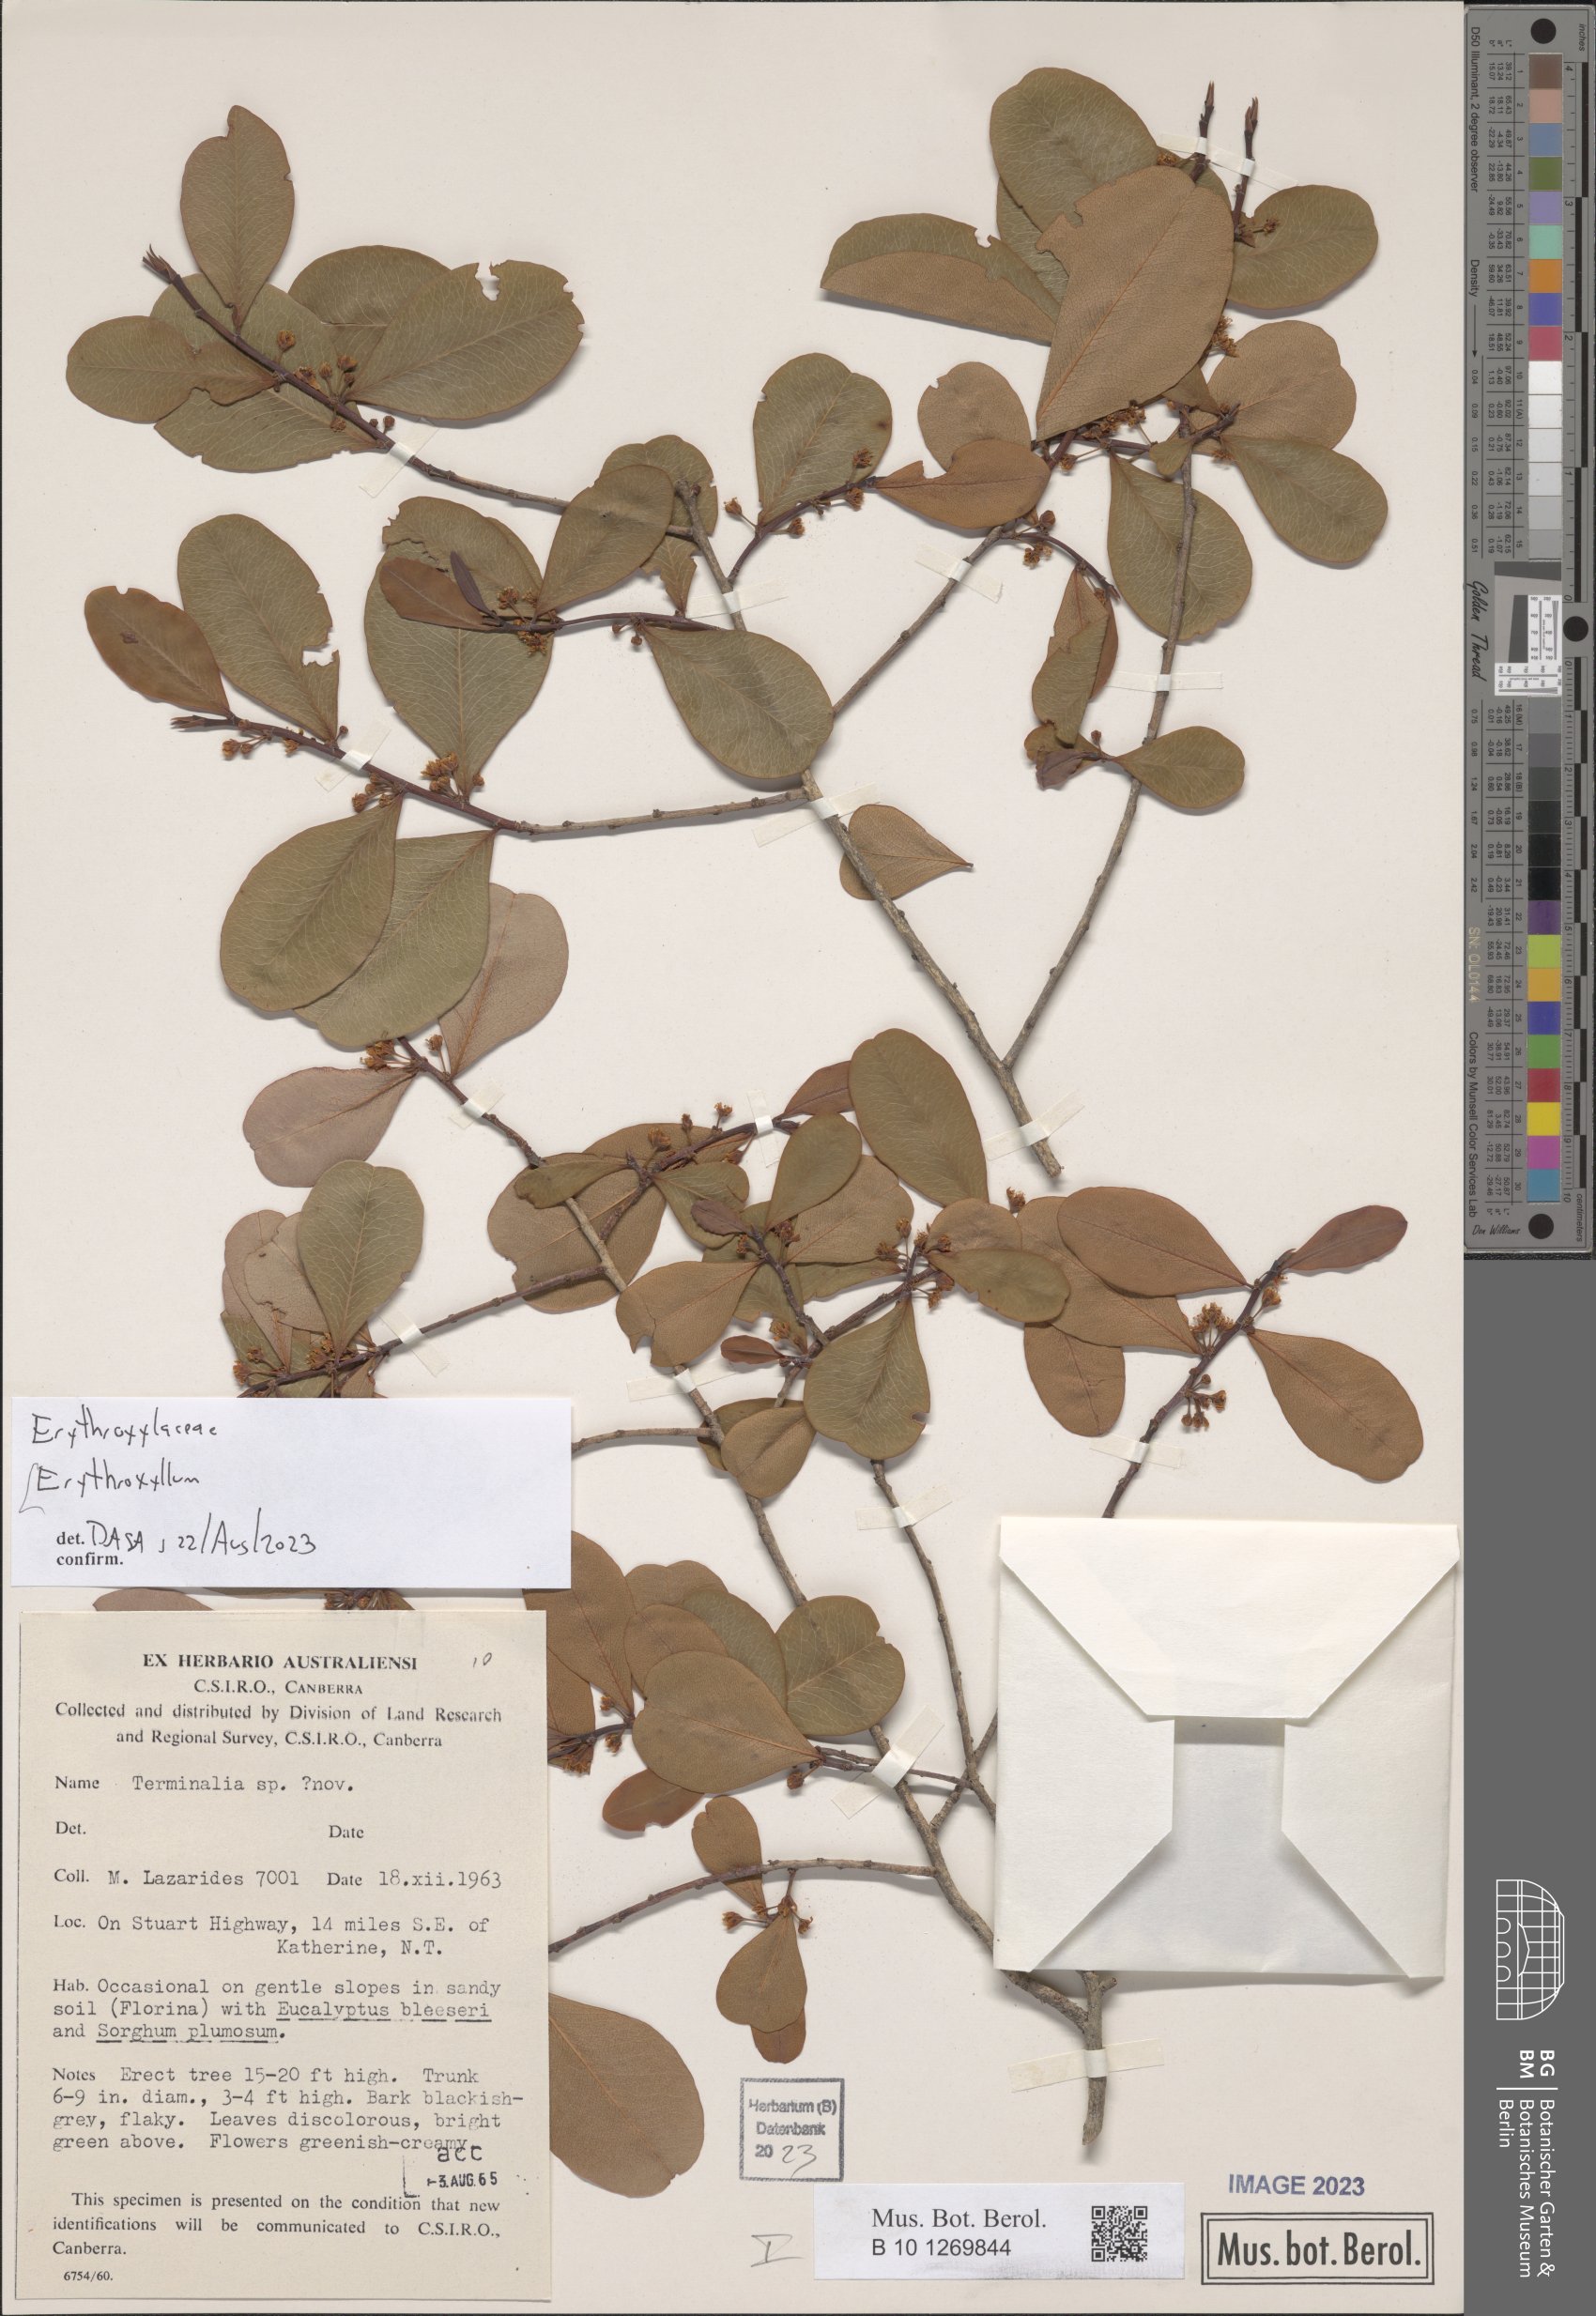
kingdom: Plantae
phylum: Tracheophyta
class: Magnoliopsida
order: Malpighiales
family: Erythroxylaceae
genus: Erythroxylum
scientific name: Erythroxylum
